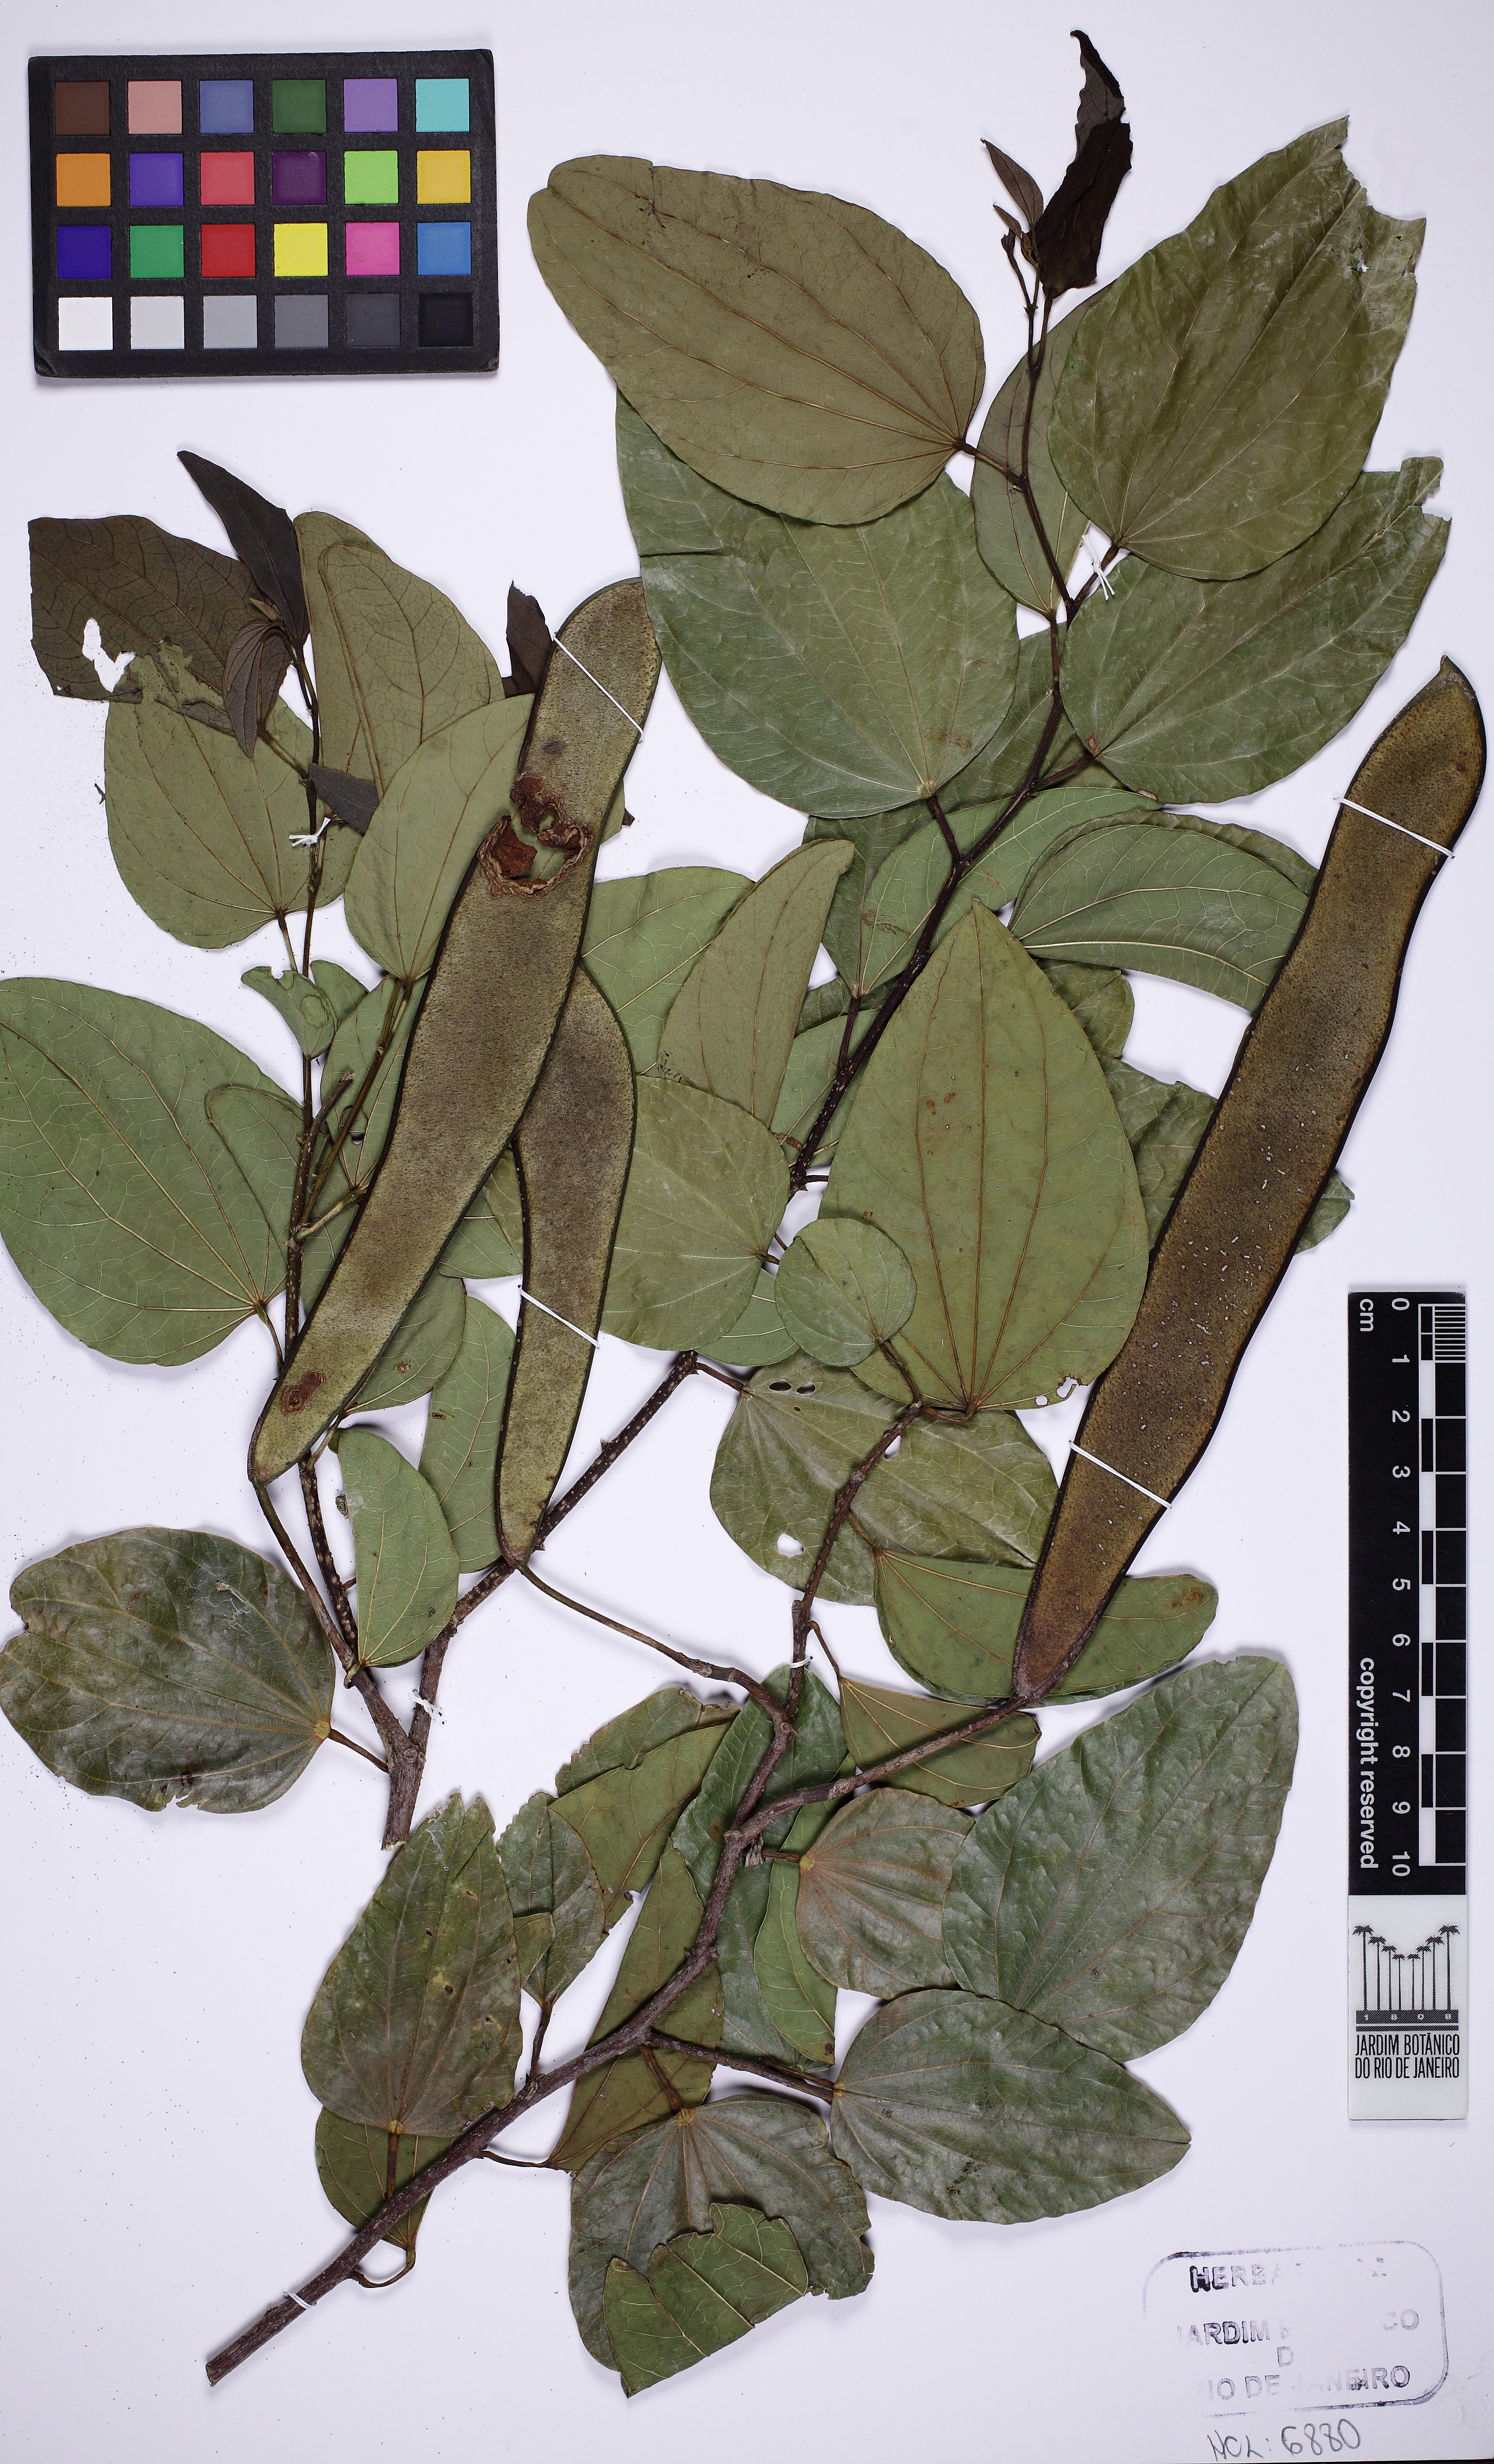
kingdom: Plantae
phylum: Tracheophyta
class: Magnoliopsida
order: Fabales
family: Fabaceae
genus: Bauhinia
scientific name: Bauhinia ovata
